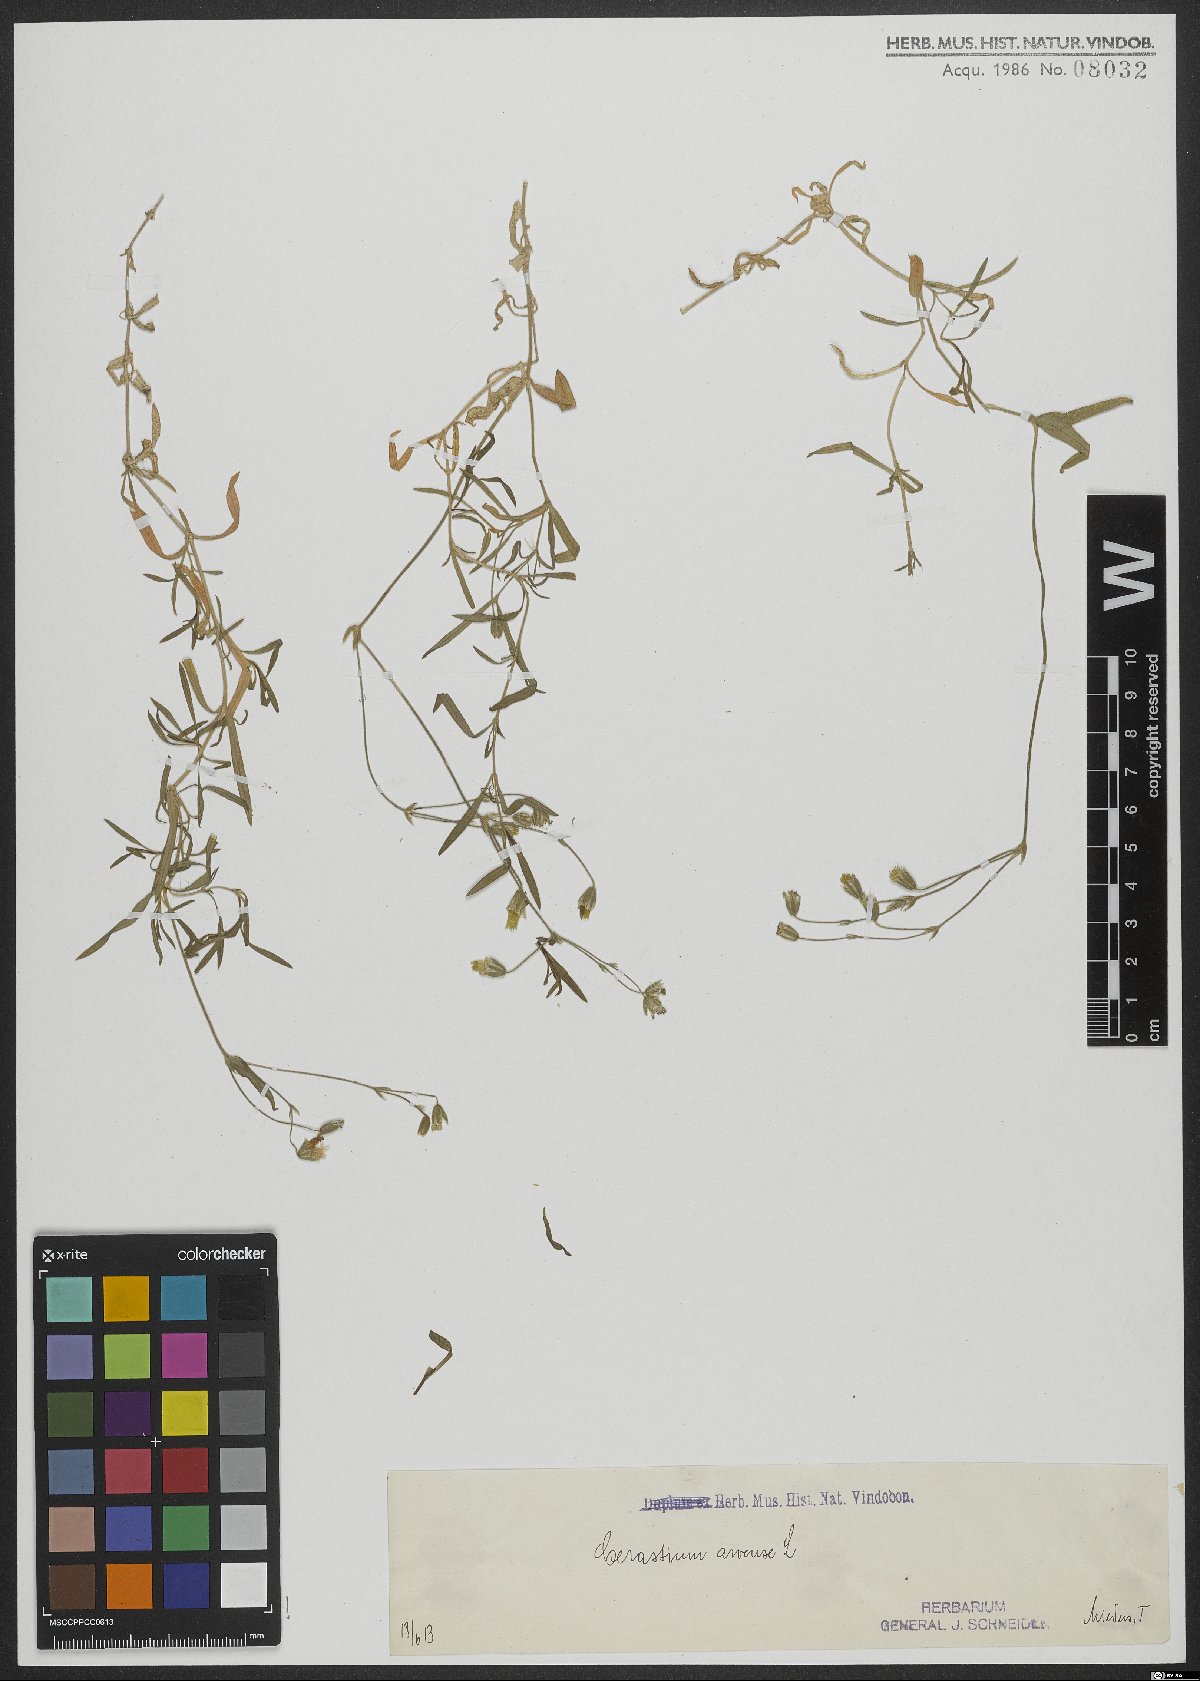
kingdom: Plantae
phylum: Tracheophyta
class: Magnoliopsida
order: Caryophyllales
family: Caryophyllaceae
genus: Cerastium
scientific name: Cerastium arvense
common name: Field mouse-ear
